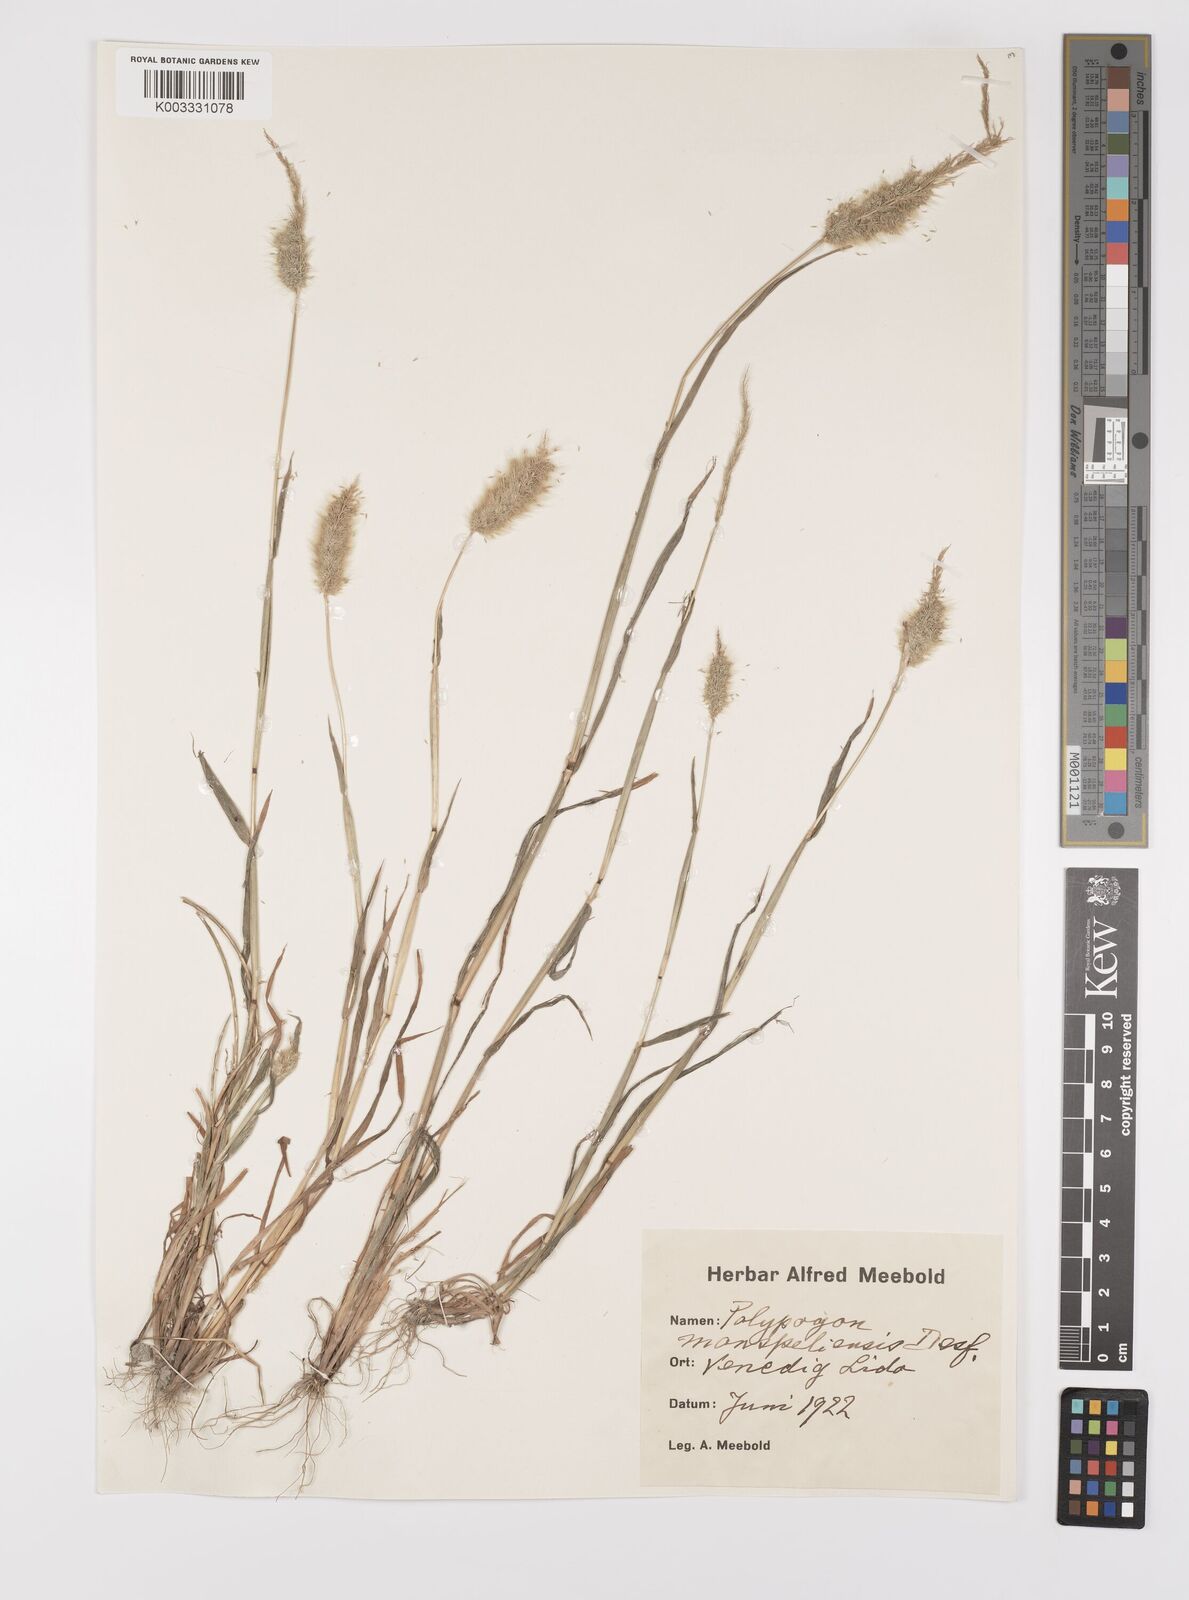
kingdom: Plantae
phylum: Tracheophyta
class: Liliopsida
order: Poales
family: Poaceae
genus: Polypogon
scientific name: Polypogon monspeliensis
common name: Annual rabbitsfoot grass
